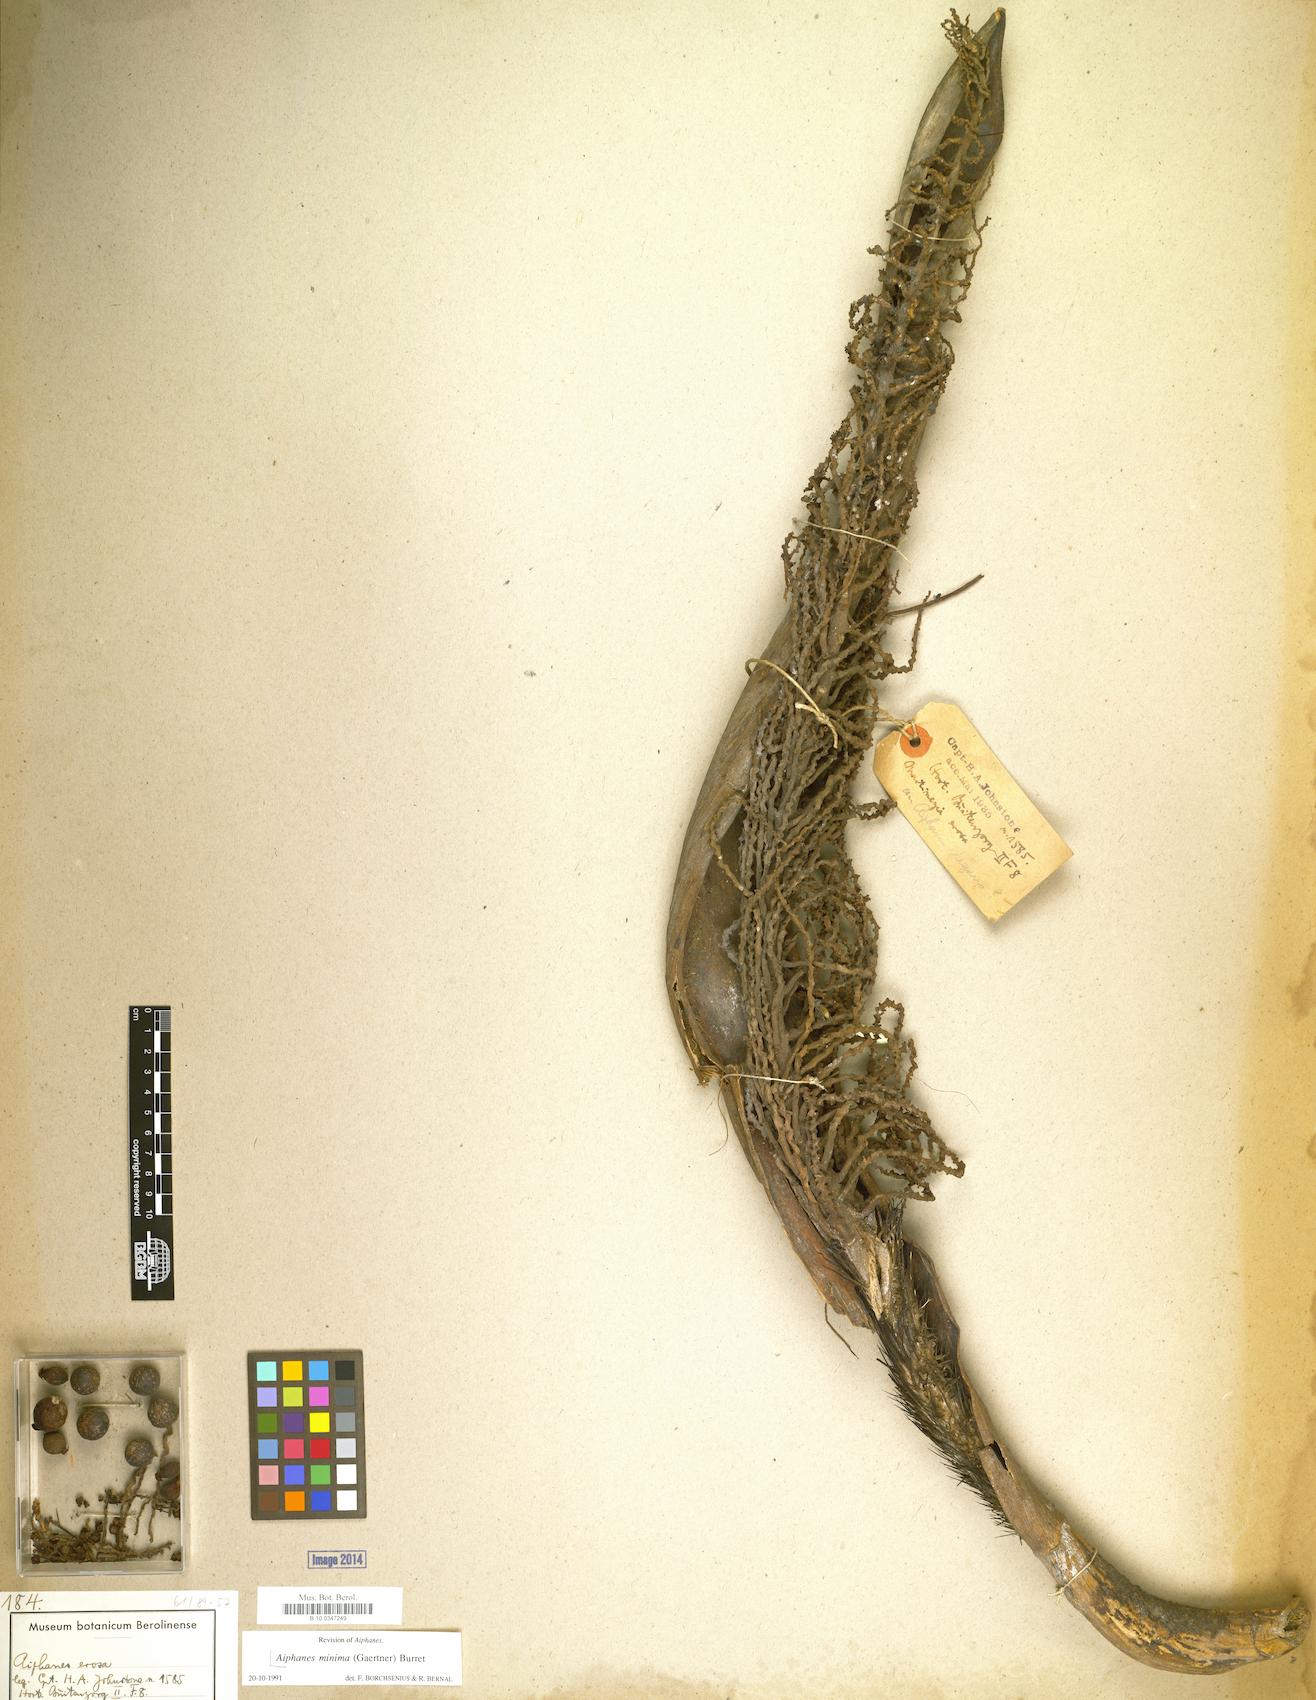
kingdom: Plantae
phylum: Tracheophyta
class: Liliopsida
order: Arecales
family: Arecaceae
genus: Aiphanes
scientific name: Aiphanes minima
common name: Grigri
